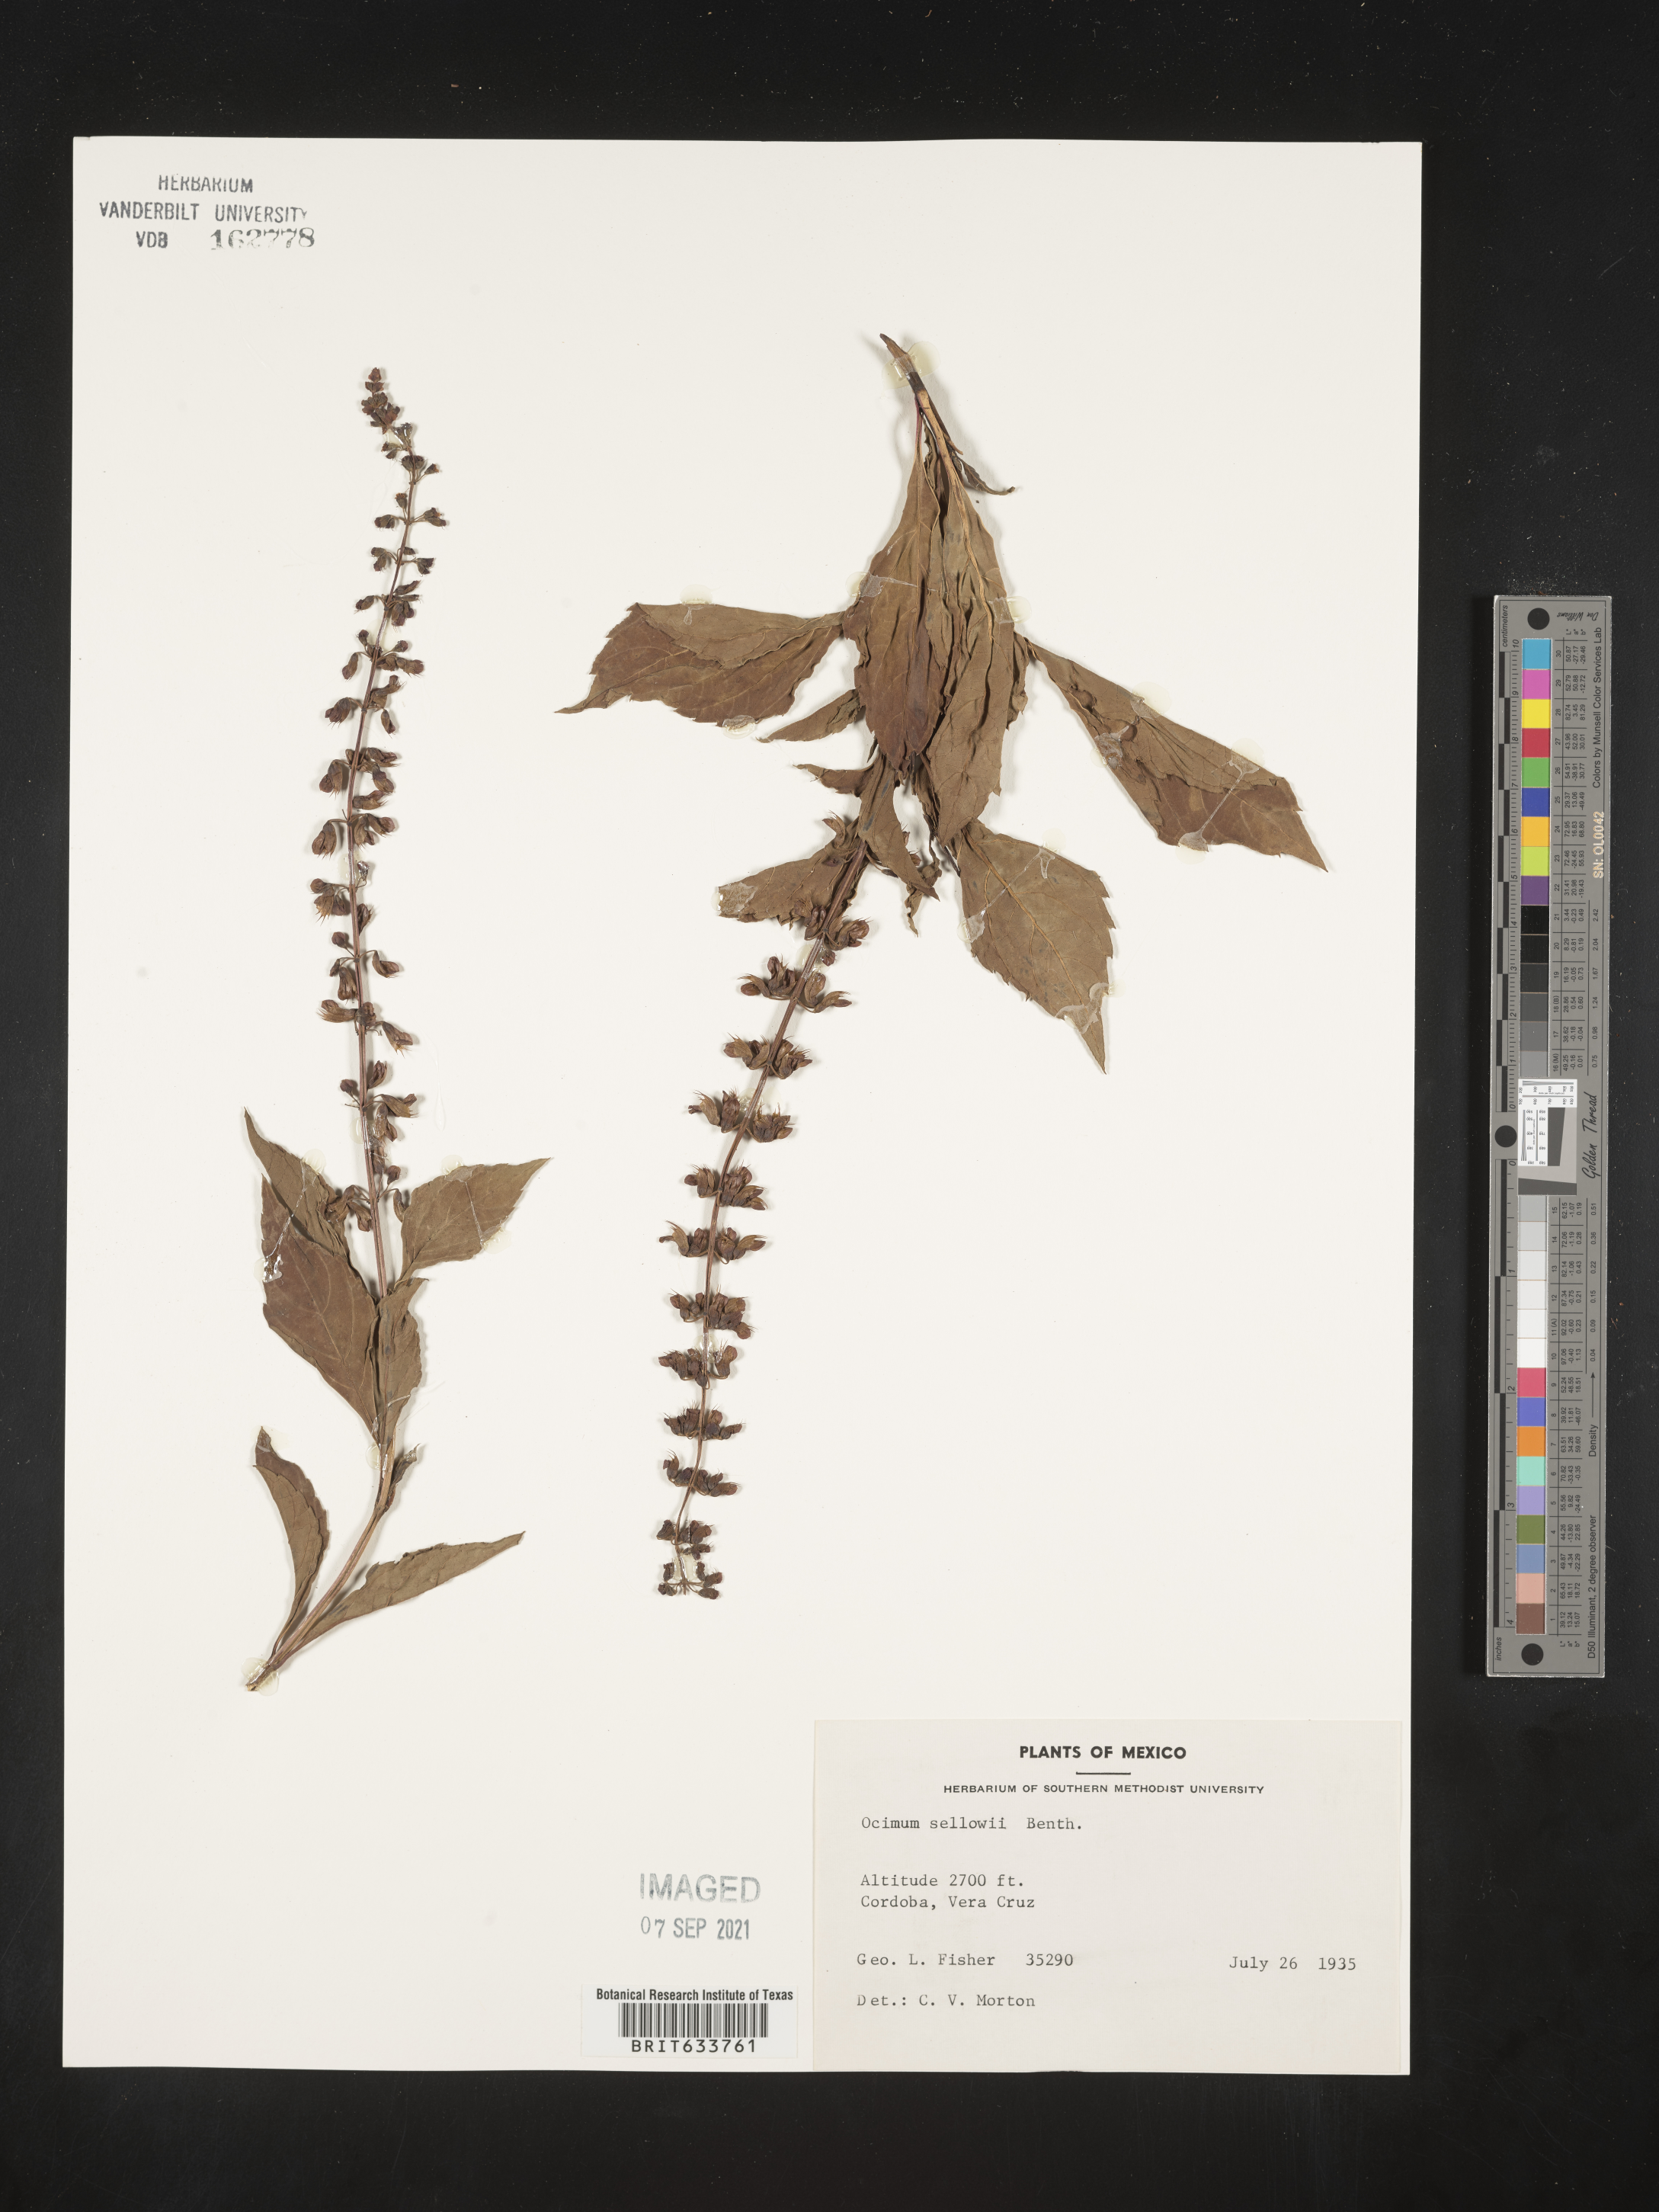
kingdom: Plantae
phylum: Tracheophyta
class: Magnoliopsida
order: Lamiales
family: Lamiaceae
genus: Ocimum
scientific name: Ocimum
